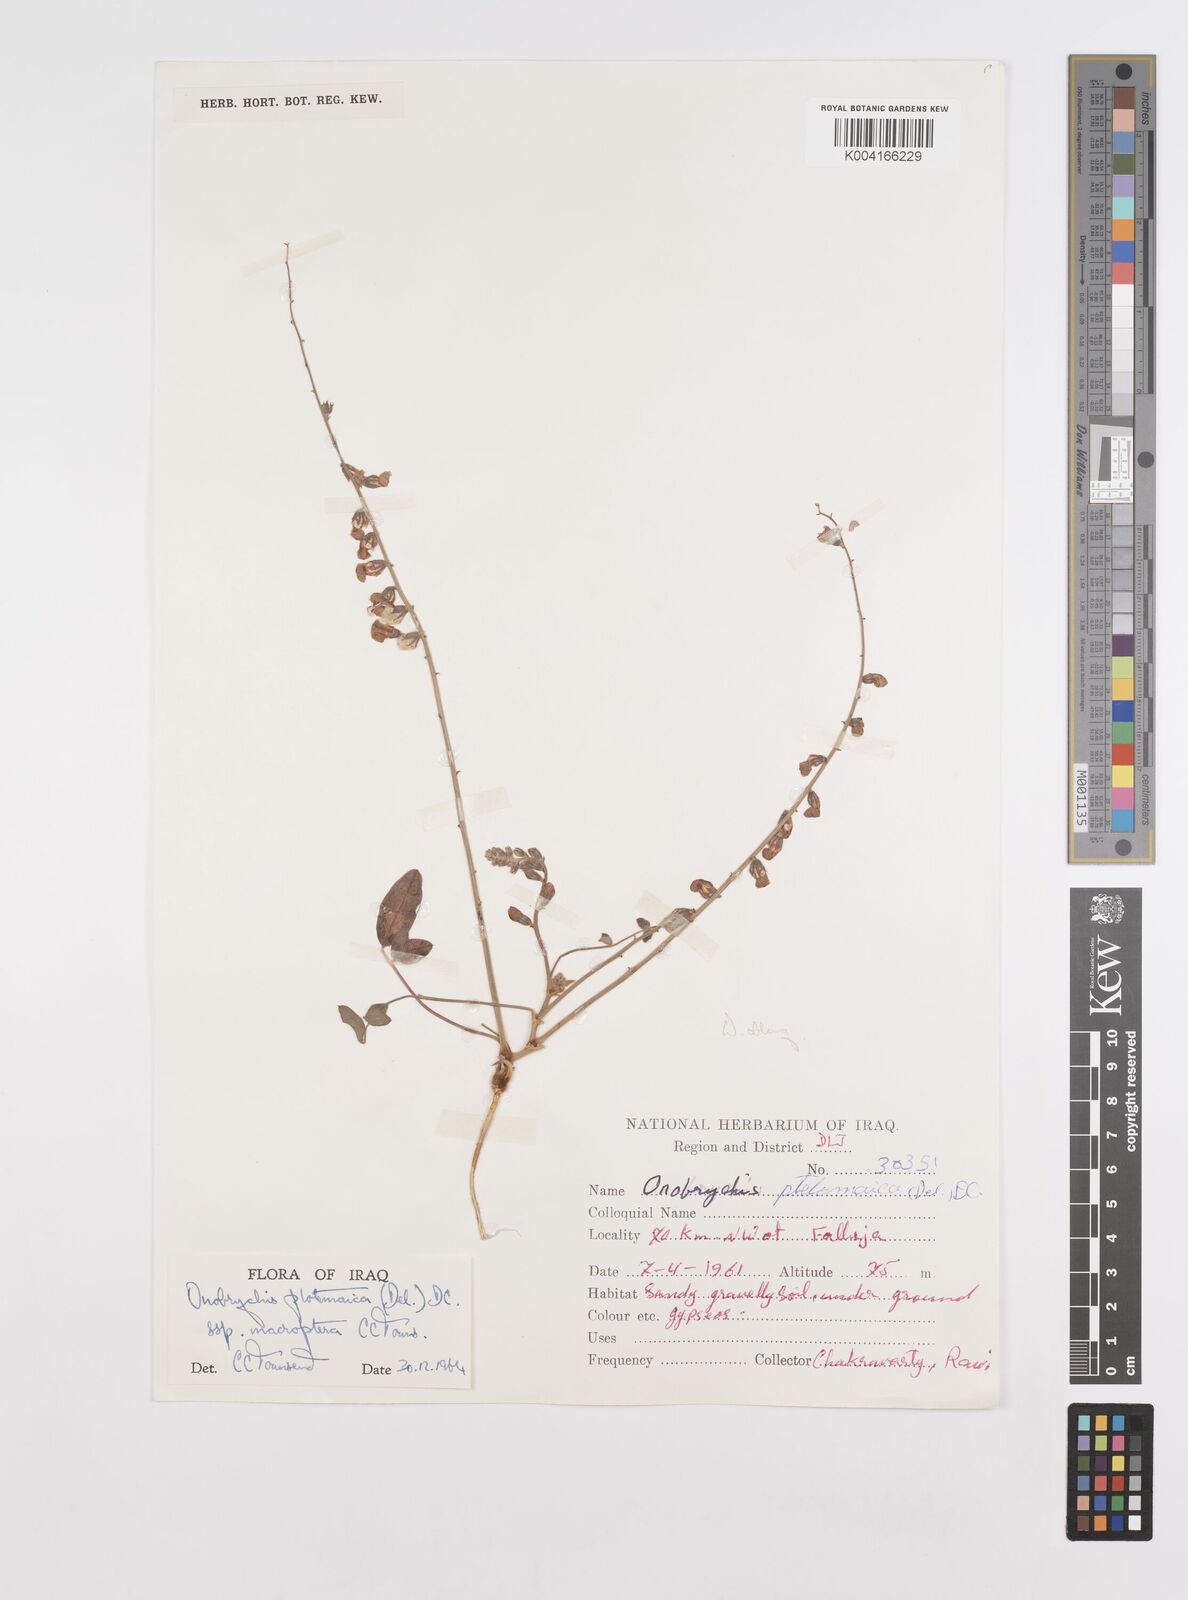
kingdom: Plantae
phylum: Tracheophyta
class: Magnoliopsida
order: Fabales
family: Fabaceae
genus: Onobrychis
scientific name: Onobrychis ptolemaica
